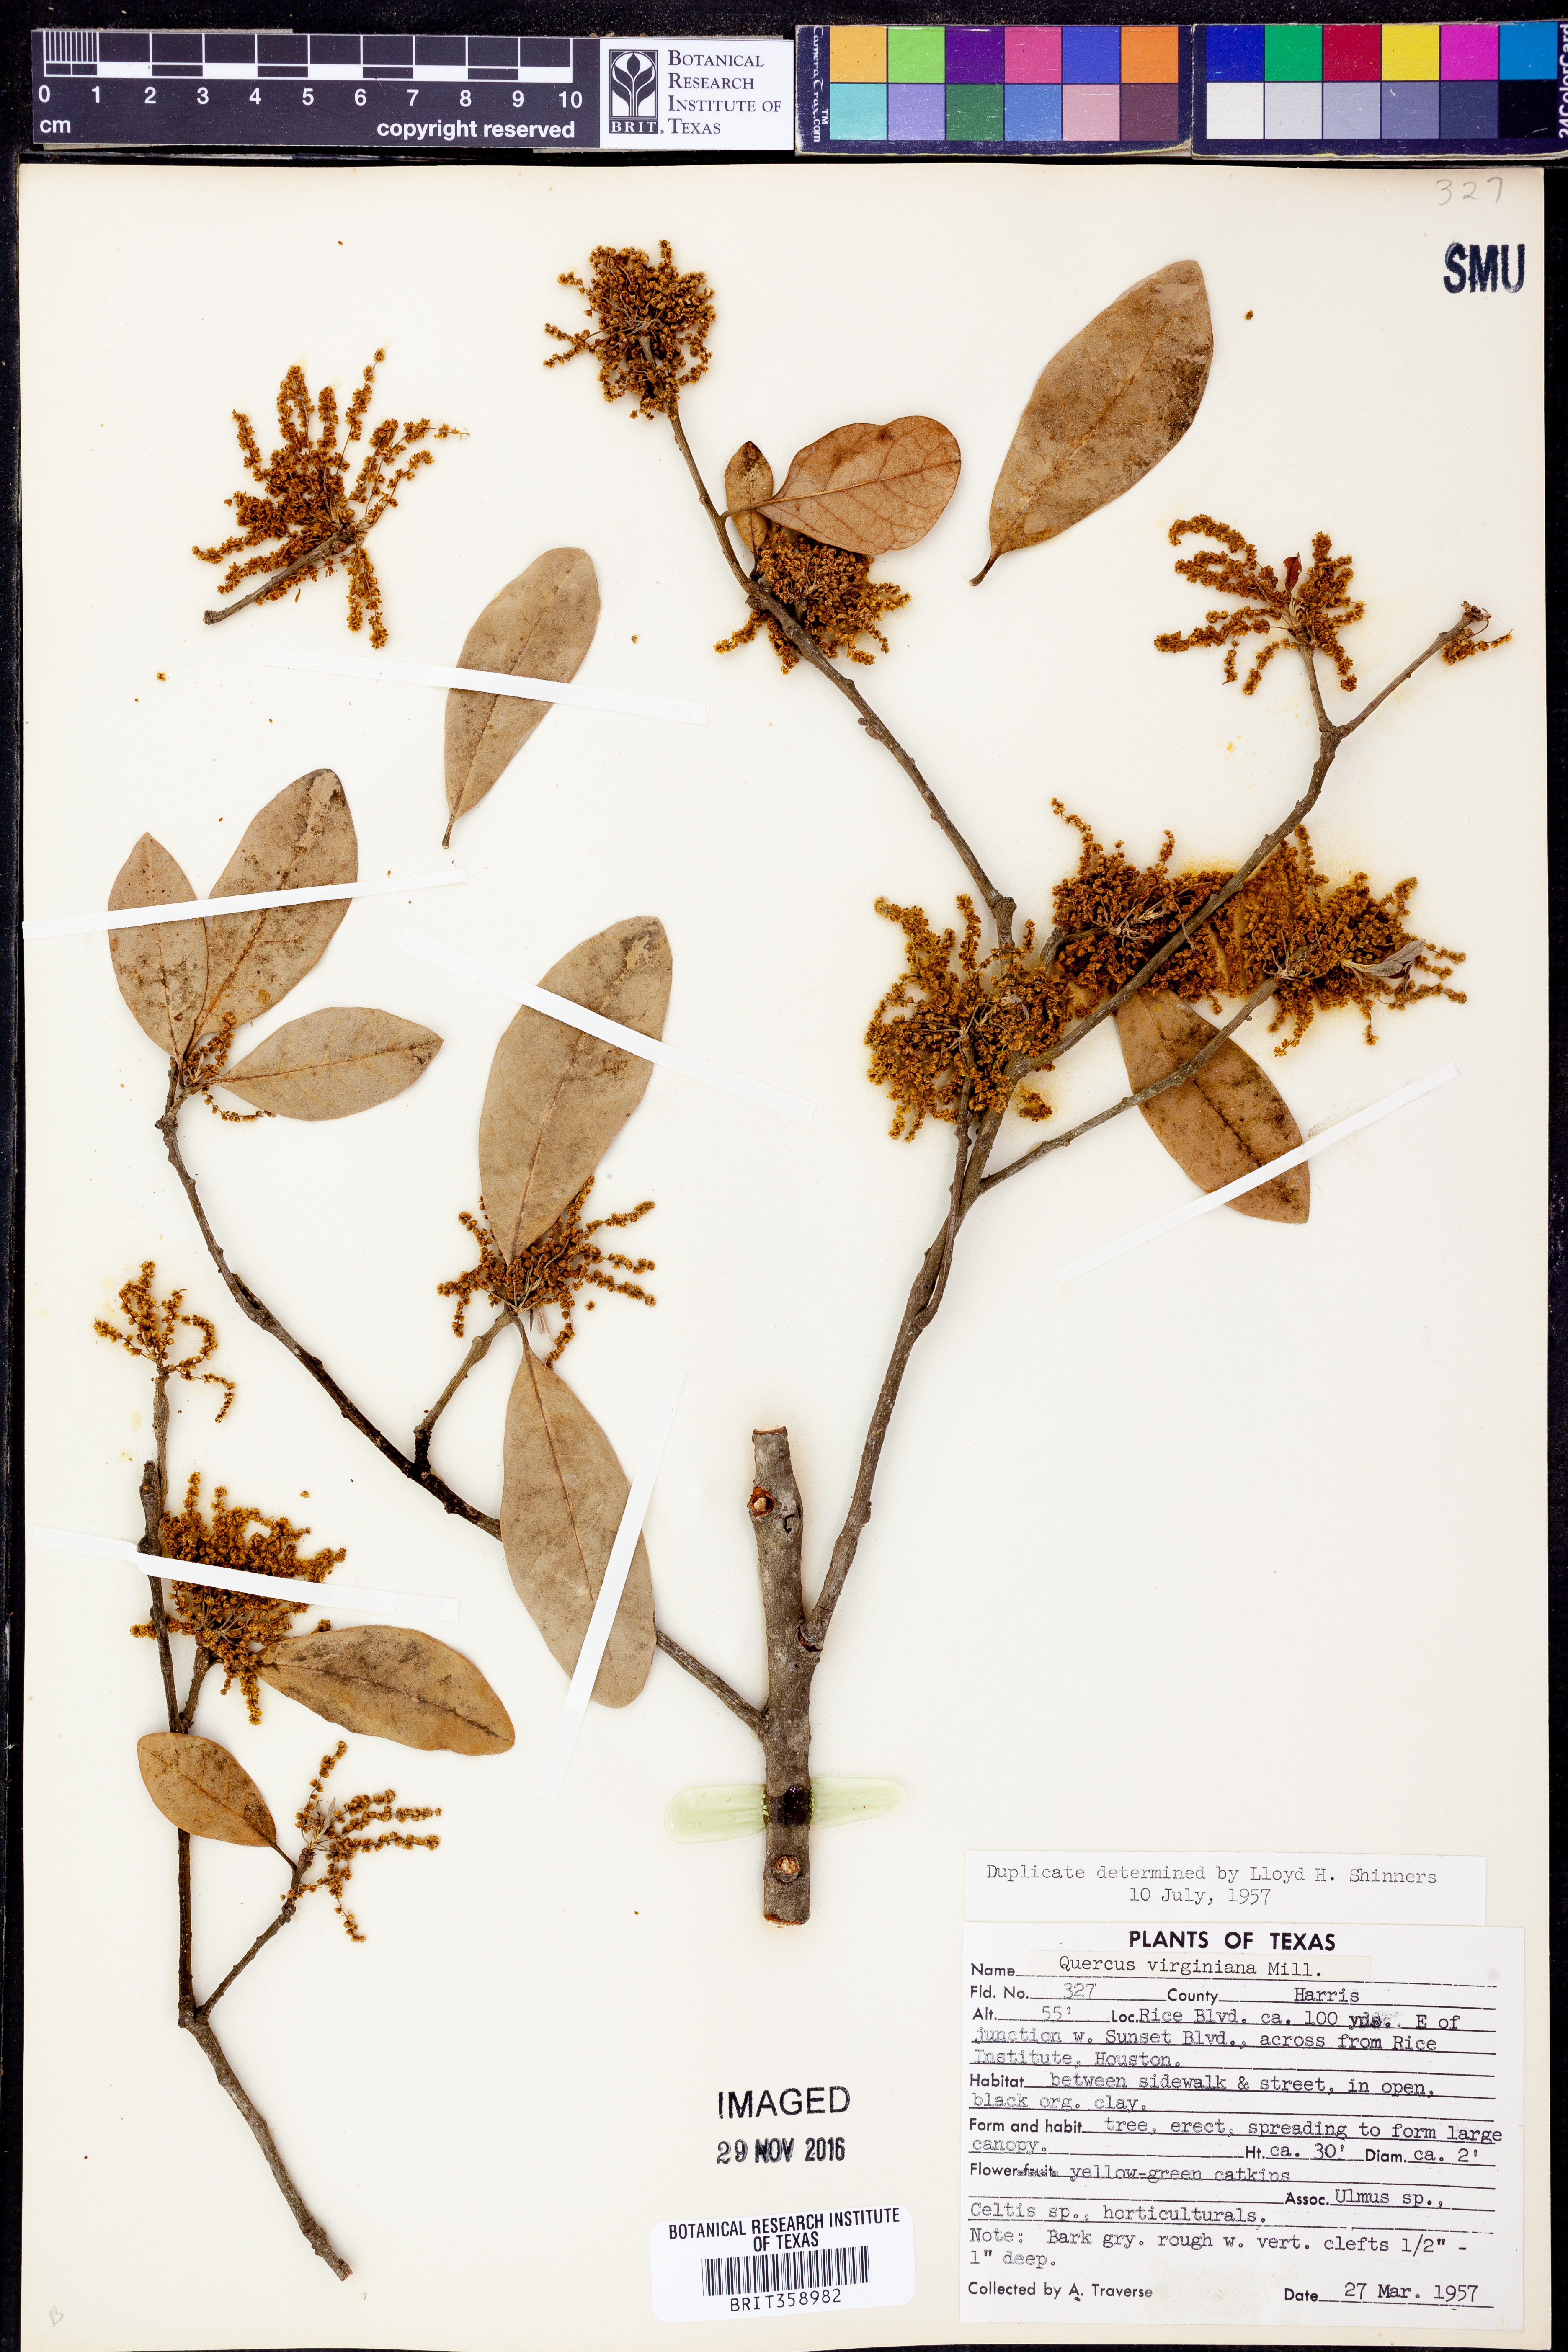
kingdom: Plantae
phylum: Tracheophyta
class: Magnoliopsida
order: Fagales
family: Fagaceae
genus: Quercus
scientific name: Quercus virginiana
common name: Southern live oak
